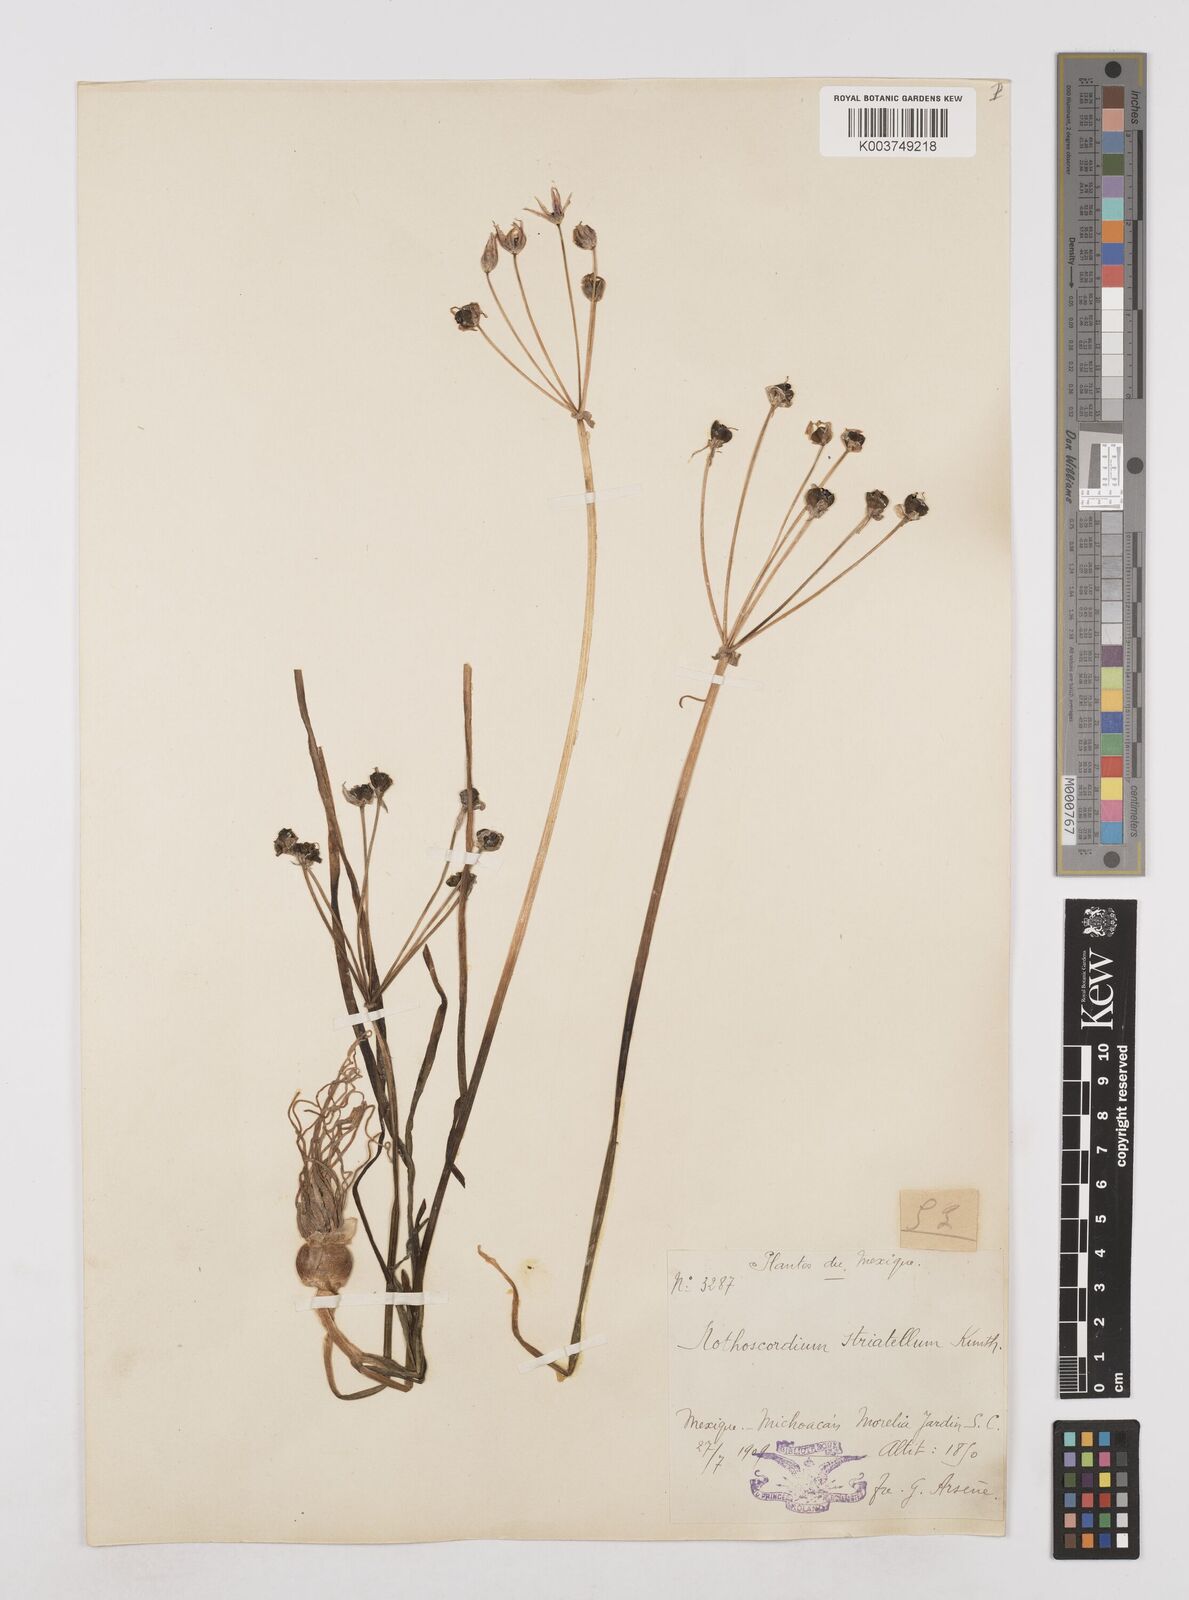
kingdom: Plantae
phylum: Tracheophyta
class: Liliopsida
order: Asparagales
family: Amaryllidaceae
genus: Nothoscordum
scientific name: Nothoscordum bivalve
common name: Crow-poison
